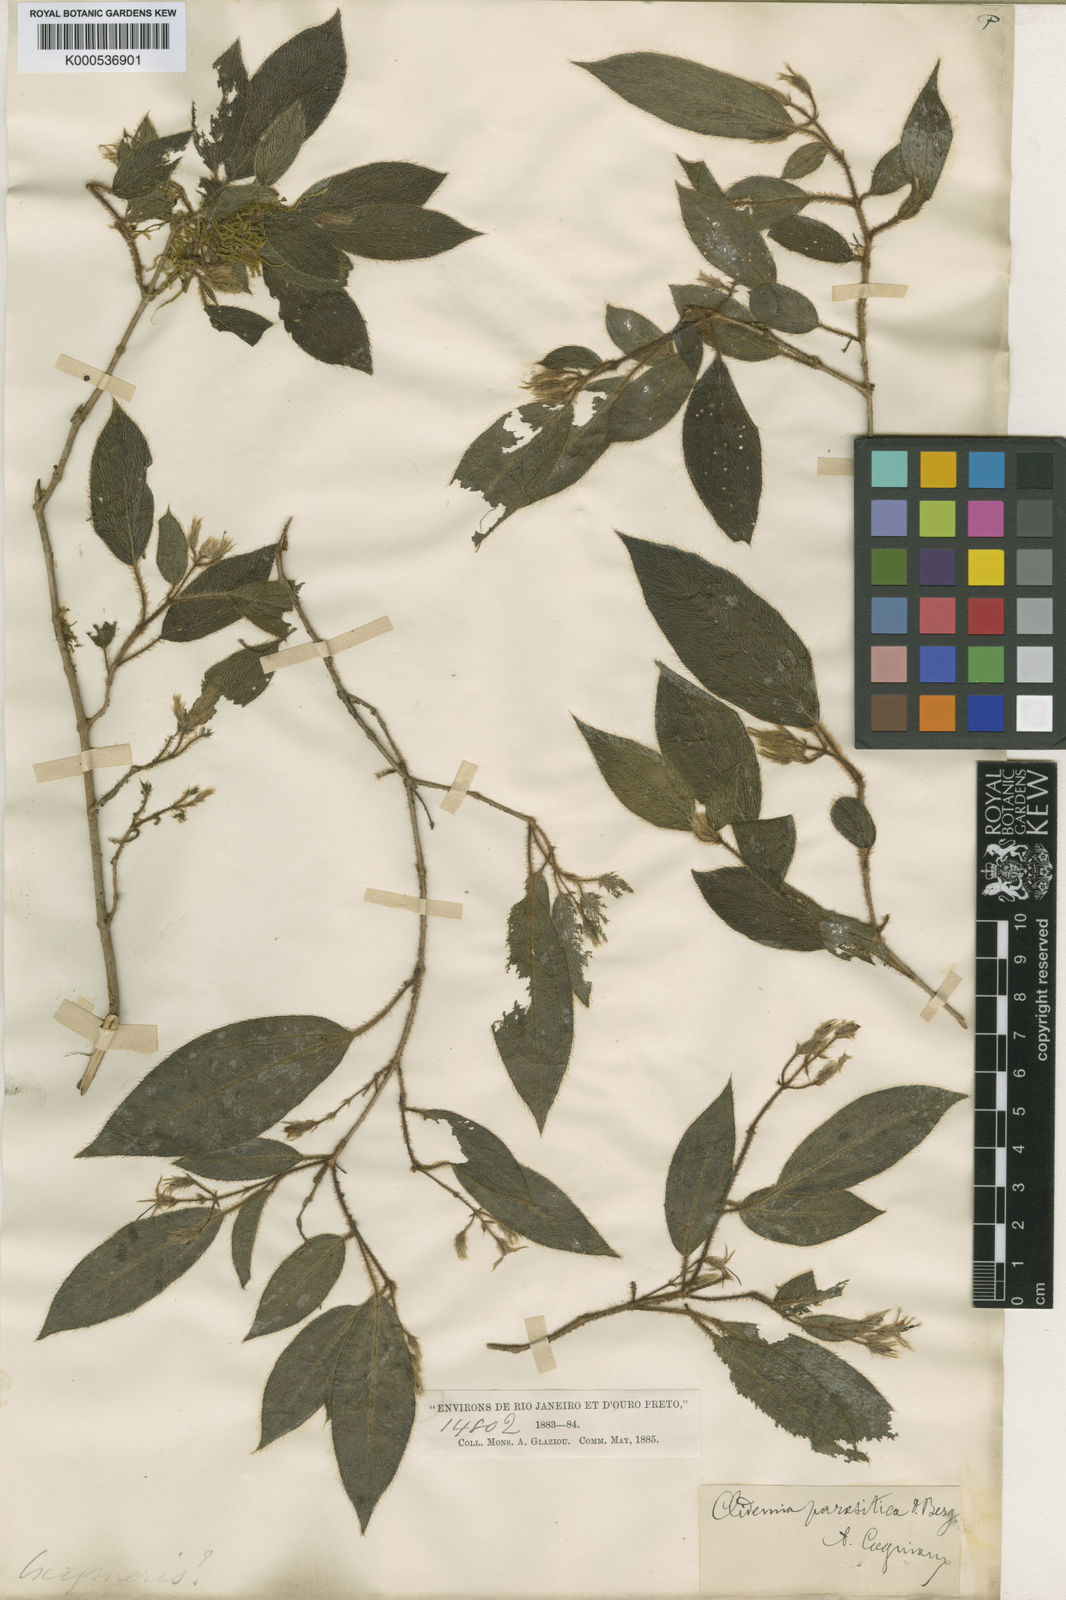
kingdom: Plantae
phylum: Tracheophyta
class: Magnoliopsida
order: Myrtales
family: Melastomataceae
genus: Miconia
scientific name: Miconia parasitica
